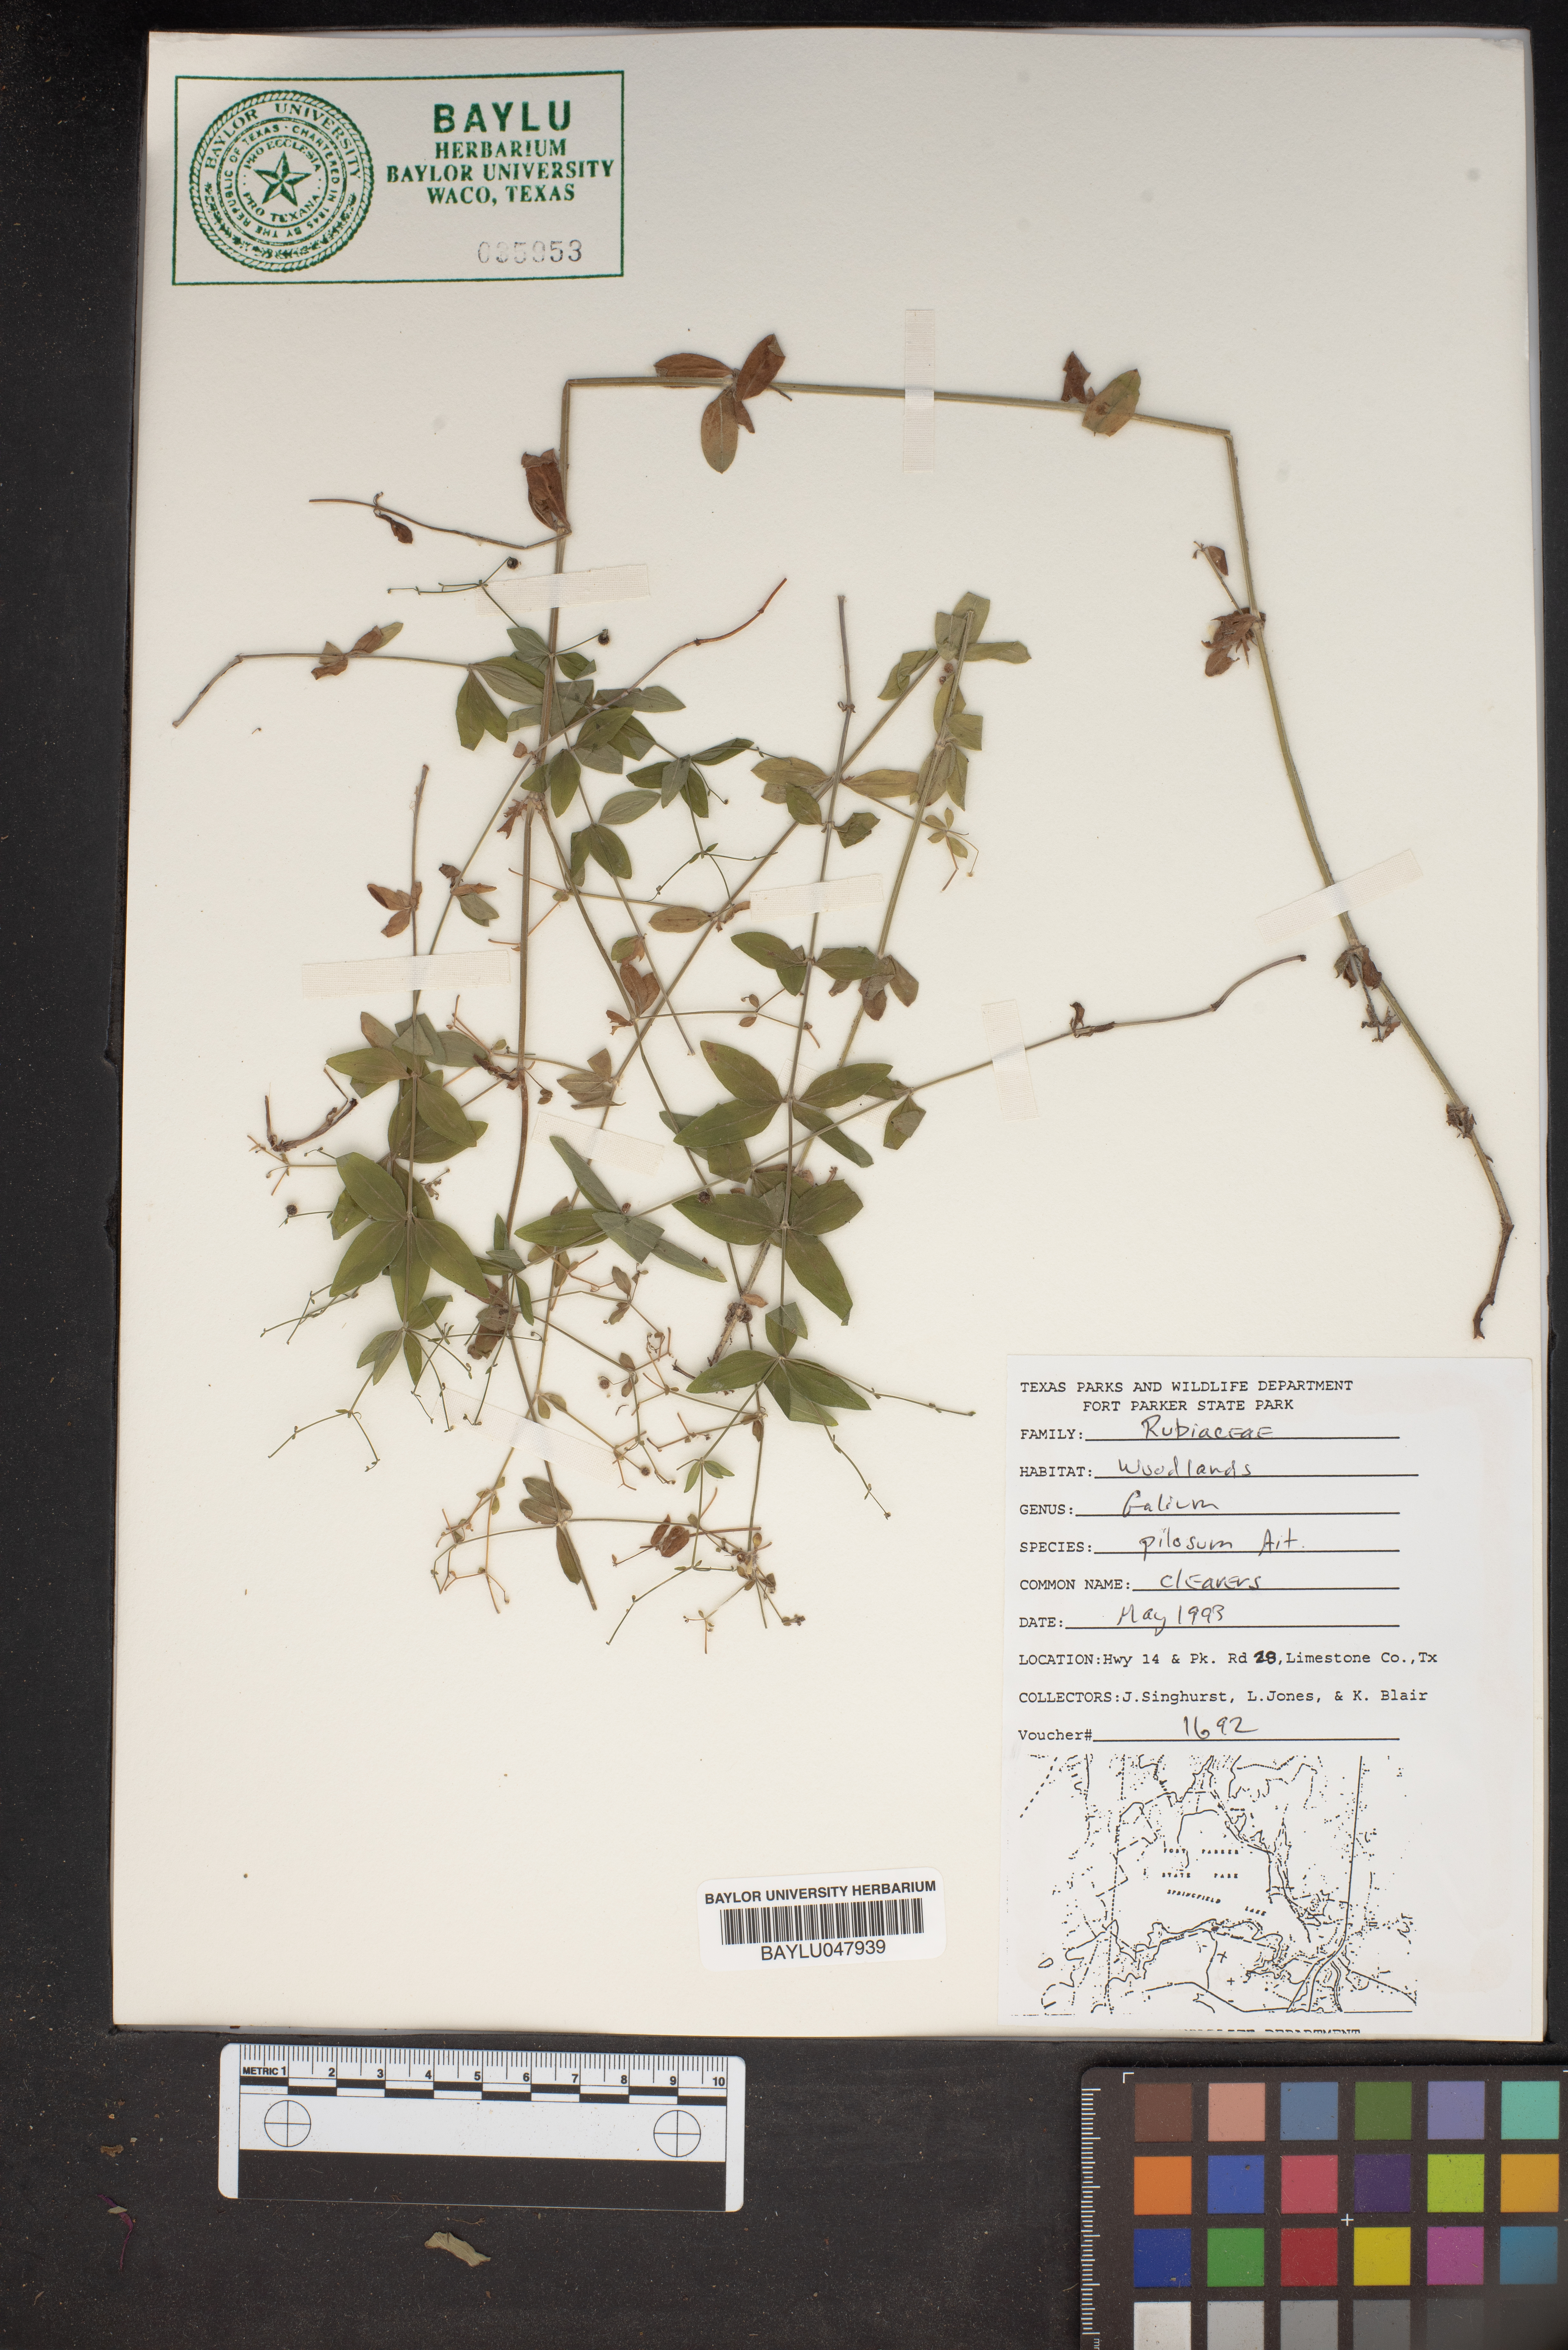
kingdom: Plantae
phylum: Tracheophyta
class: Magnoliopsida
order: Gentianales
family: Rubiaceae
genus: Galium
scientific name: Galium pilosum
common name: Hairy bedstraw
